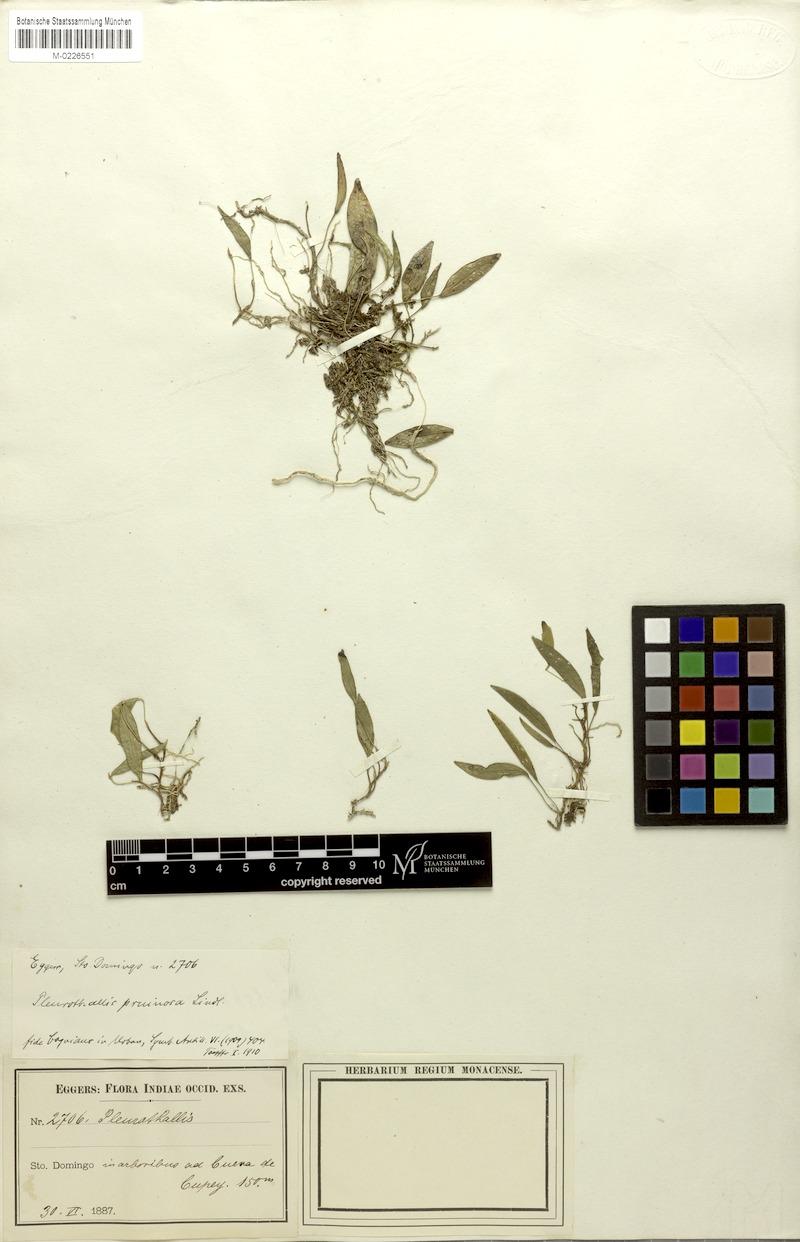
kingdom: Plantae
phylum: Tracheophyta
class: Liliopsida
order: Asparagales
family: Orchidaceae
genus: Pleurothallis
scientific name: Pleurothallis pruinosa
